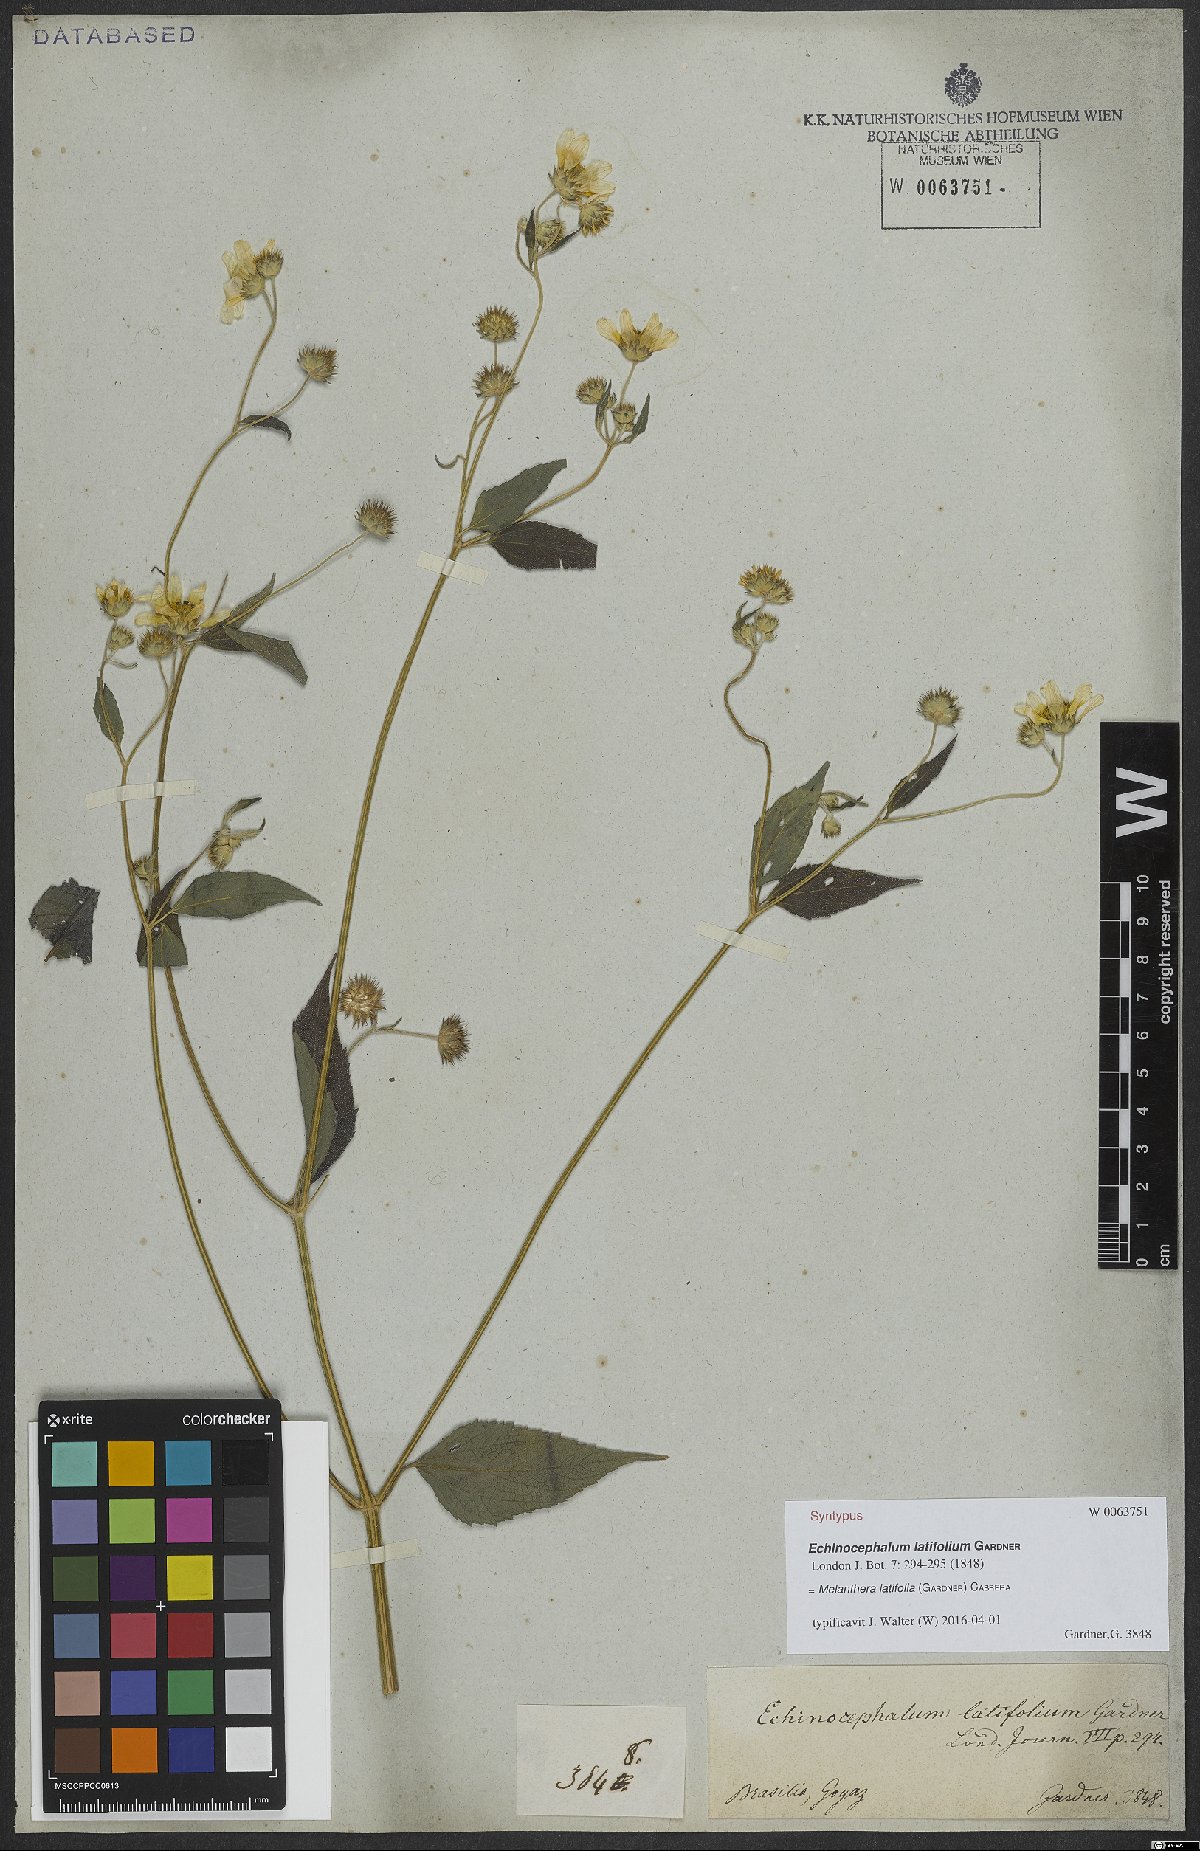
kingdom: Plantae
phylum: Tracheophyta
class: Magnoliopsida
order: Asterales
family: Asteraceae
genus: Echinocephalum
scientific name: Echinocephalum latifolium
